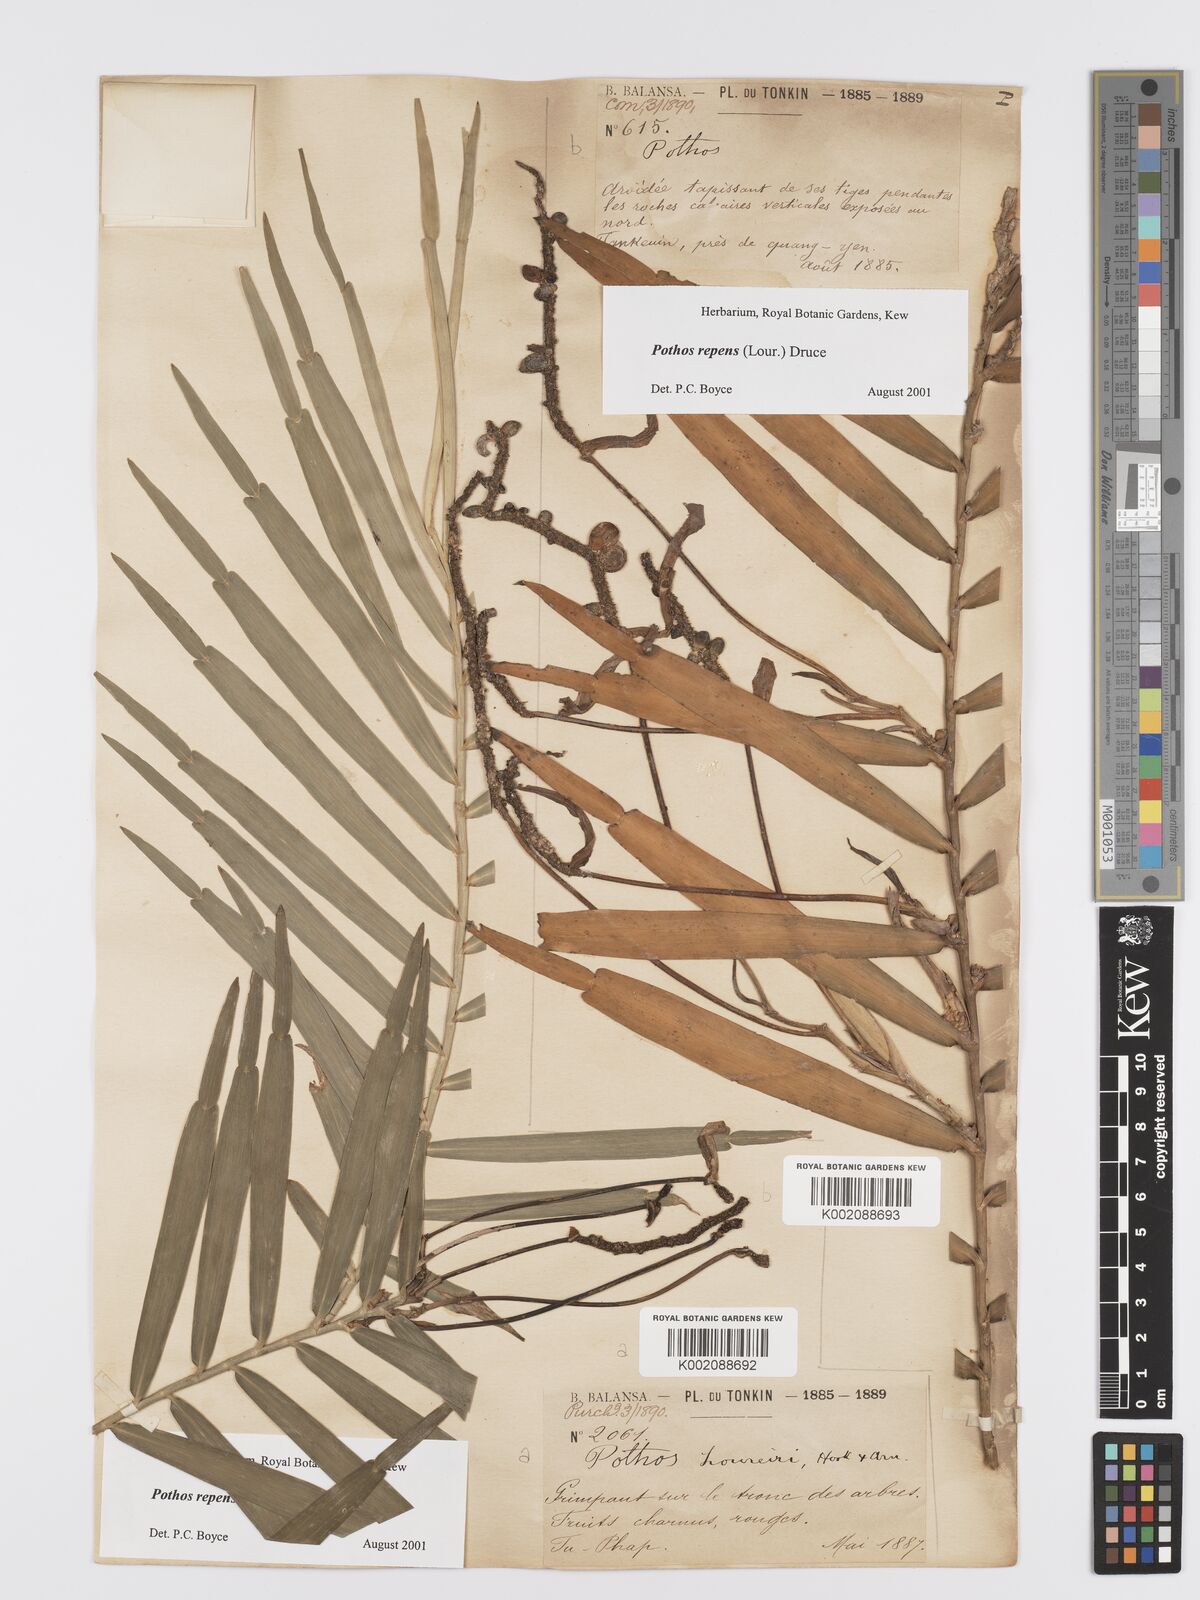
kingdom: Plantae
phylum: Tracheophyta
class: Liliopsida
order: Alismatales
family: Araceae
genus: Pothos
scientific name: Pothos repens
